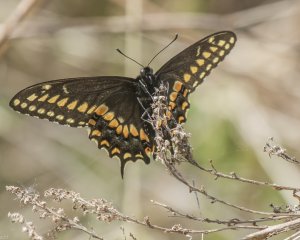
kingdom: Animalia
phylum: Arthropoda
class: Insecta
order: Lepidoptera
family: Papilionidae
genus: Papilio
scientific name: Papilio polyxenes
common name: Black Swallowtail
